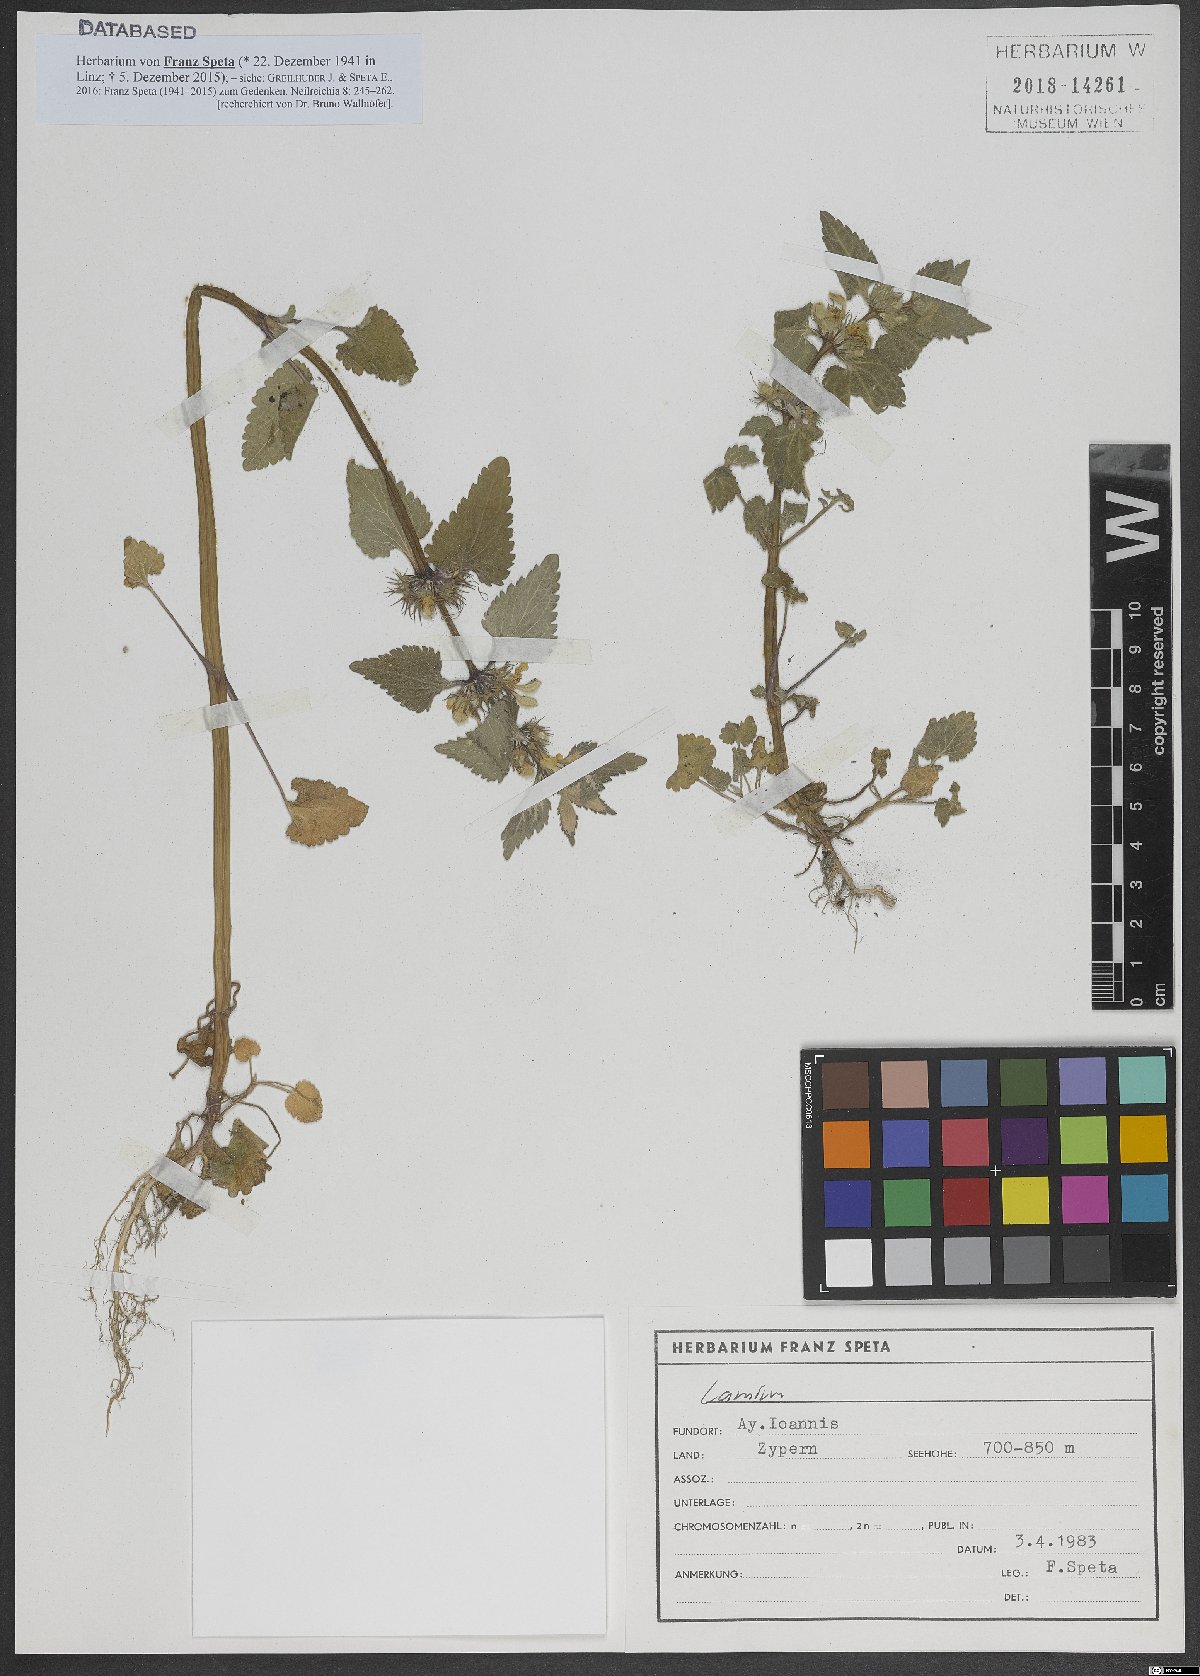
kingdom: Plantae
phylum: Tracheophyta
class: Magnoliopsida
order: Lamiales
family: Lamiaceae
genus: Lamium
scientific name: Lamium
